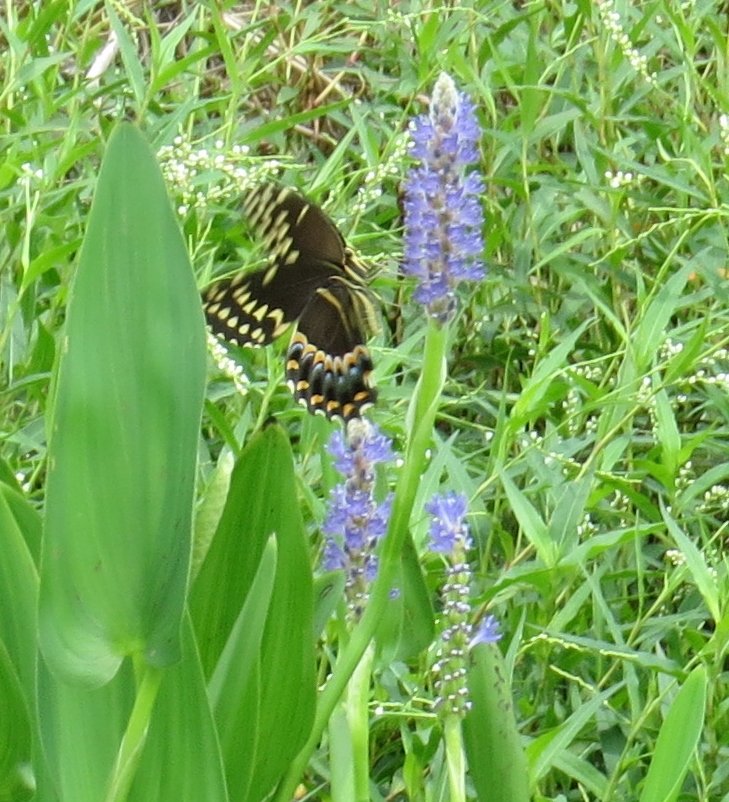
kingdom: Animalia
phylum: Arthropoda
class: Insecta
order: Lepidoptera
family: Papilionidae
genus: Pterourus
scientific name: Pterourus palamedes
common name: Palamedes Swallowtail
